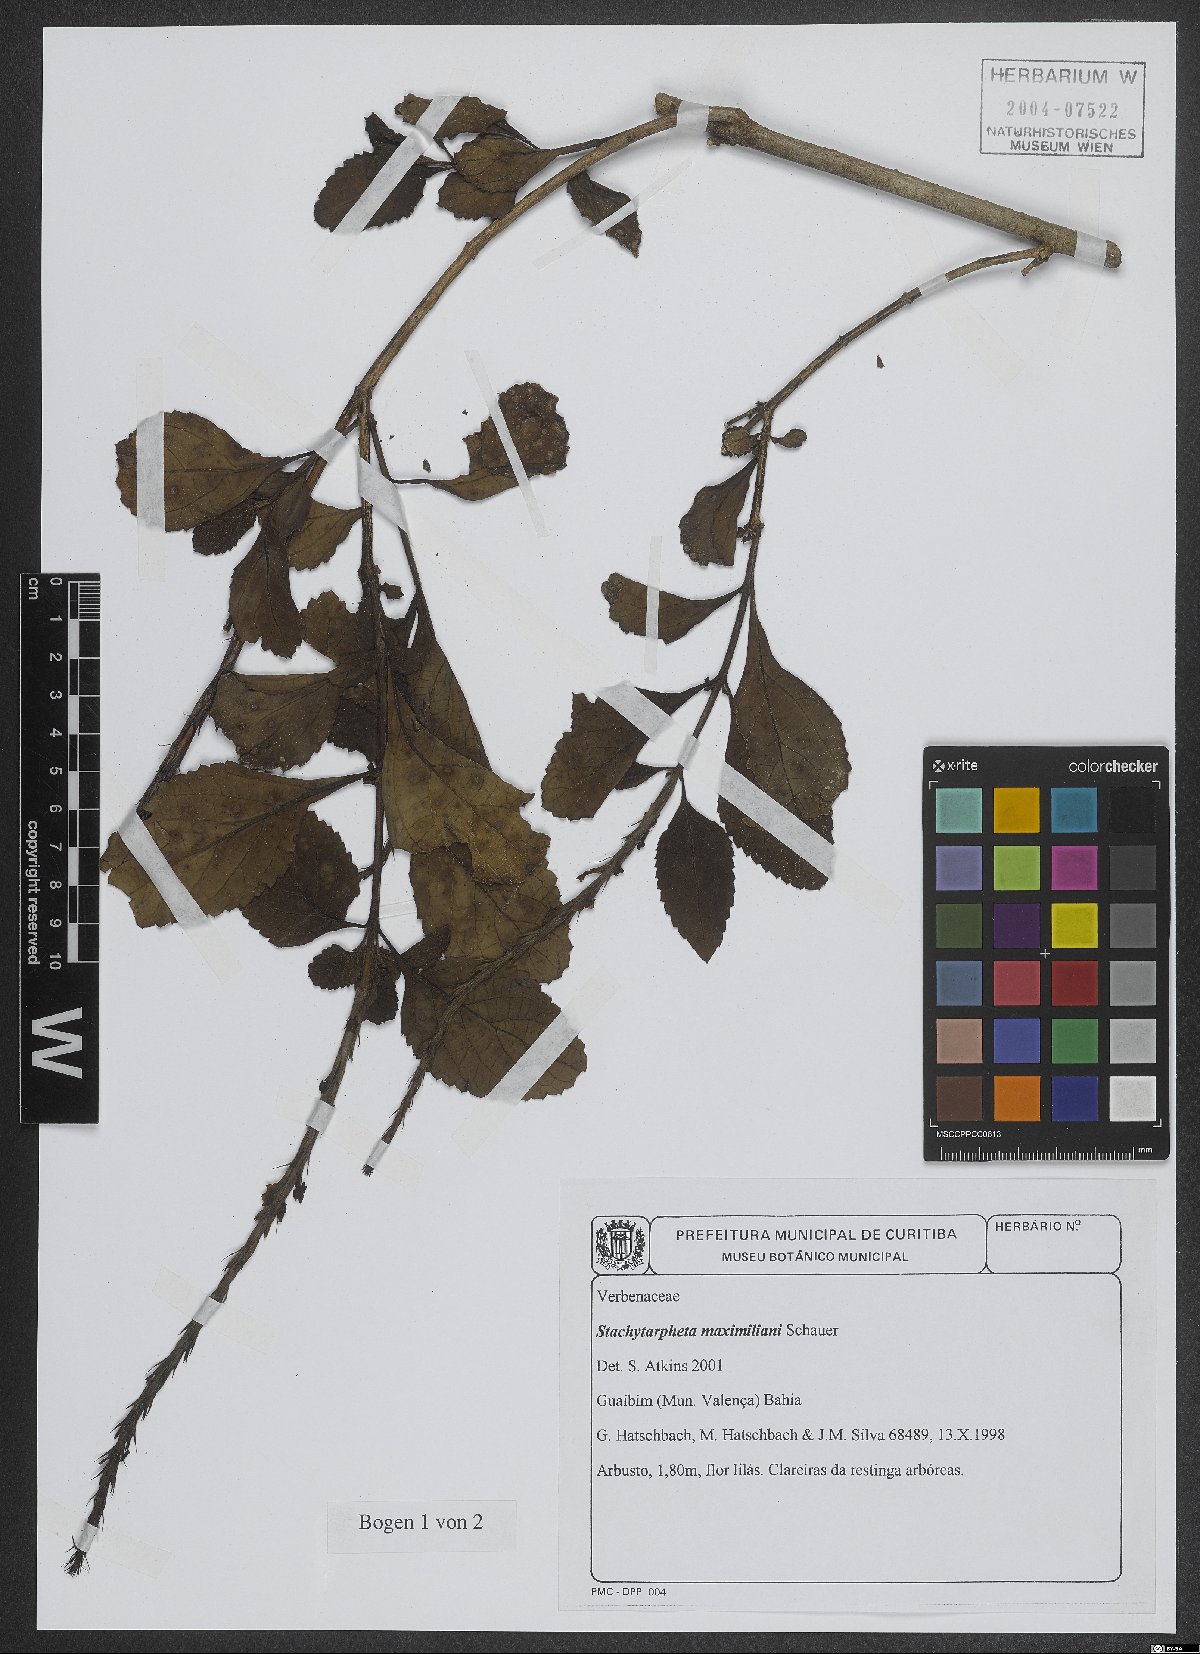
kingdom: Plantae
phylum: Tracheophyta
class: Magnoliopsida
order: Lamiales
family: Verbenaceae
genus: Stachytarpheta
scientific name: Stachytarpheta maximiliani
